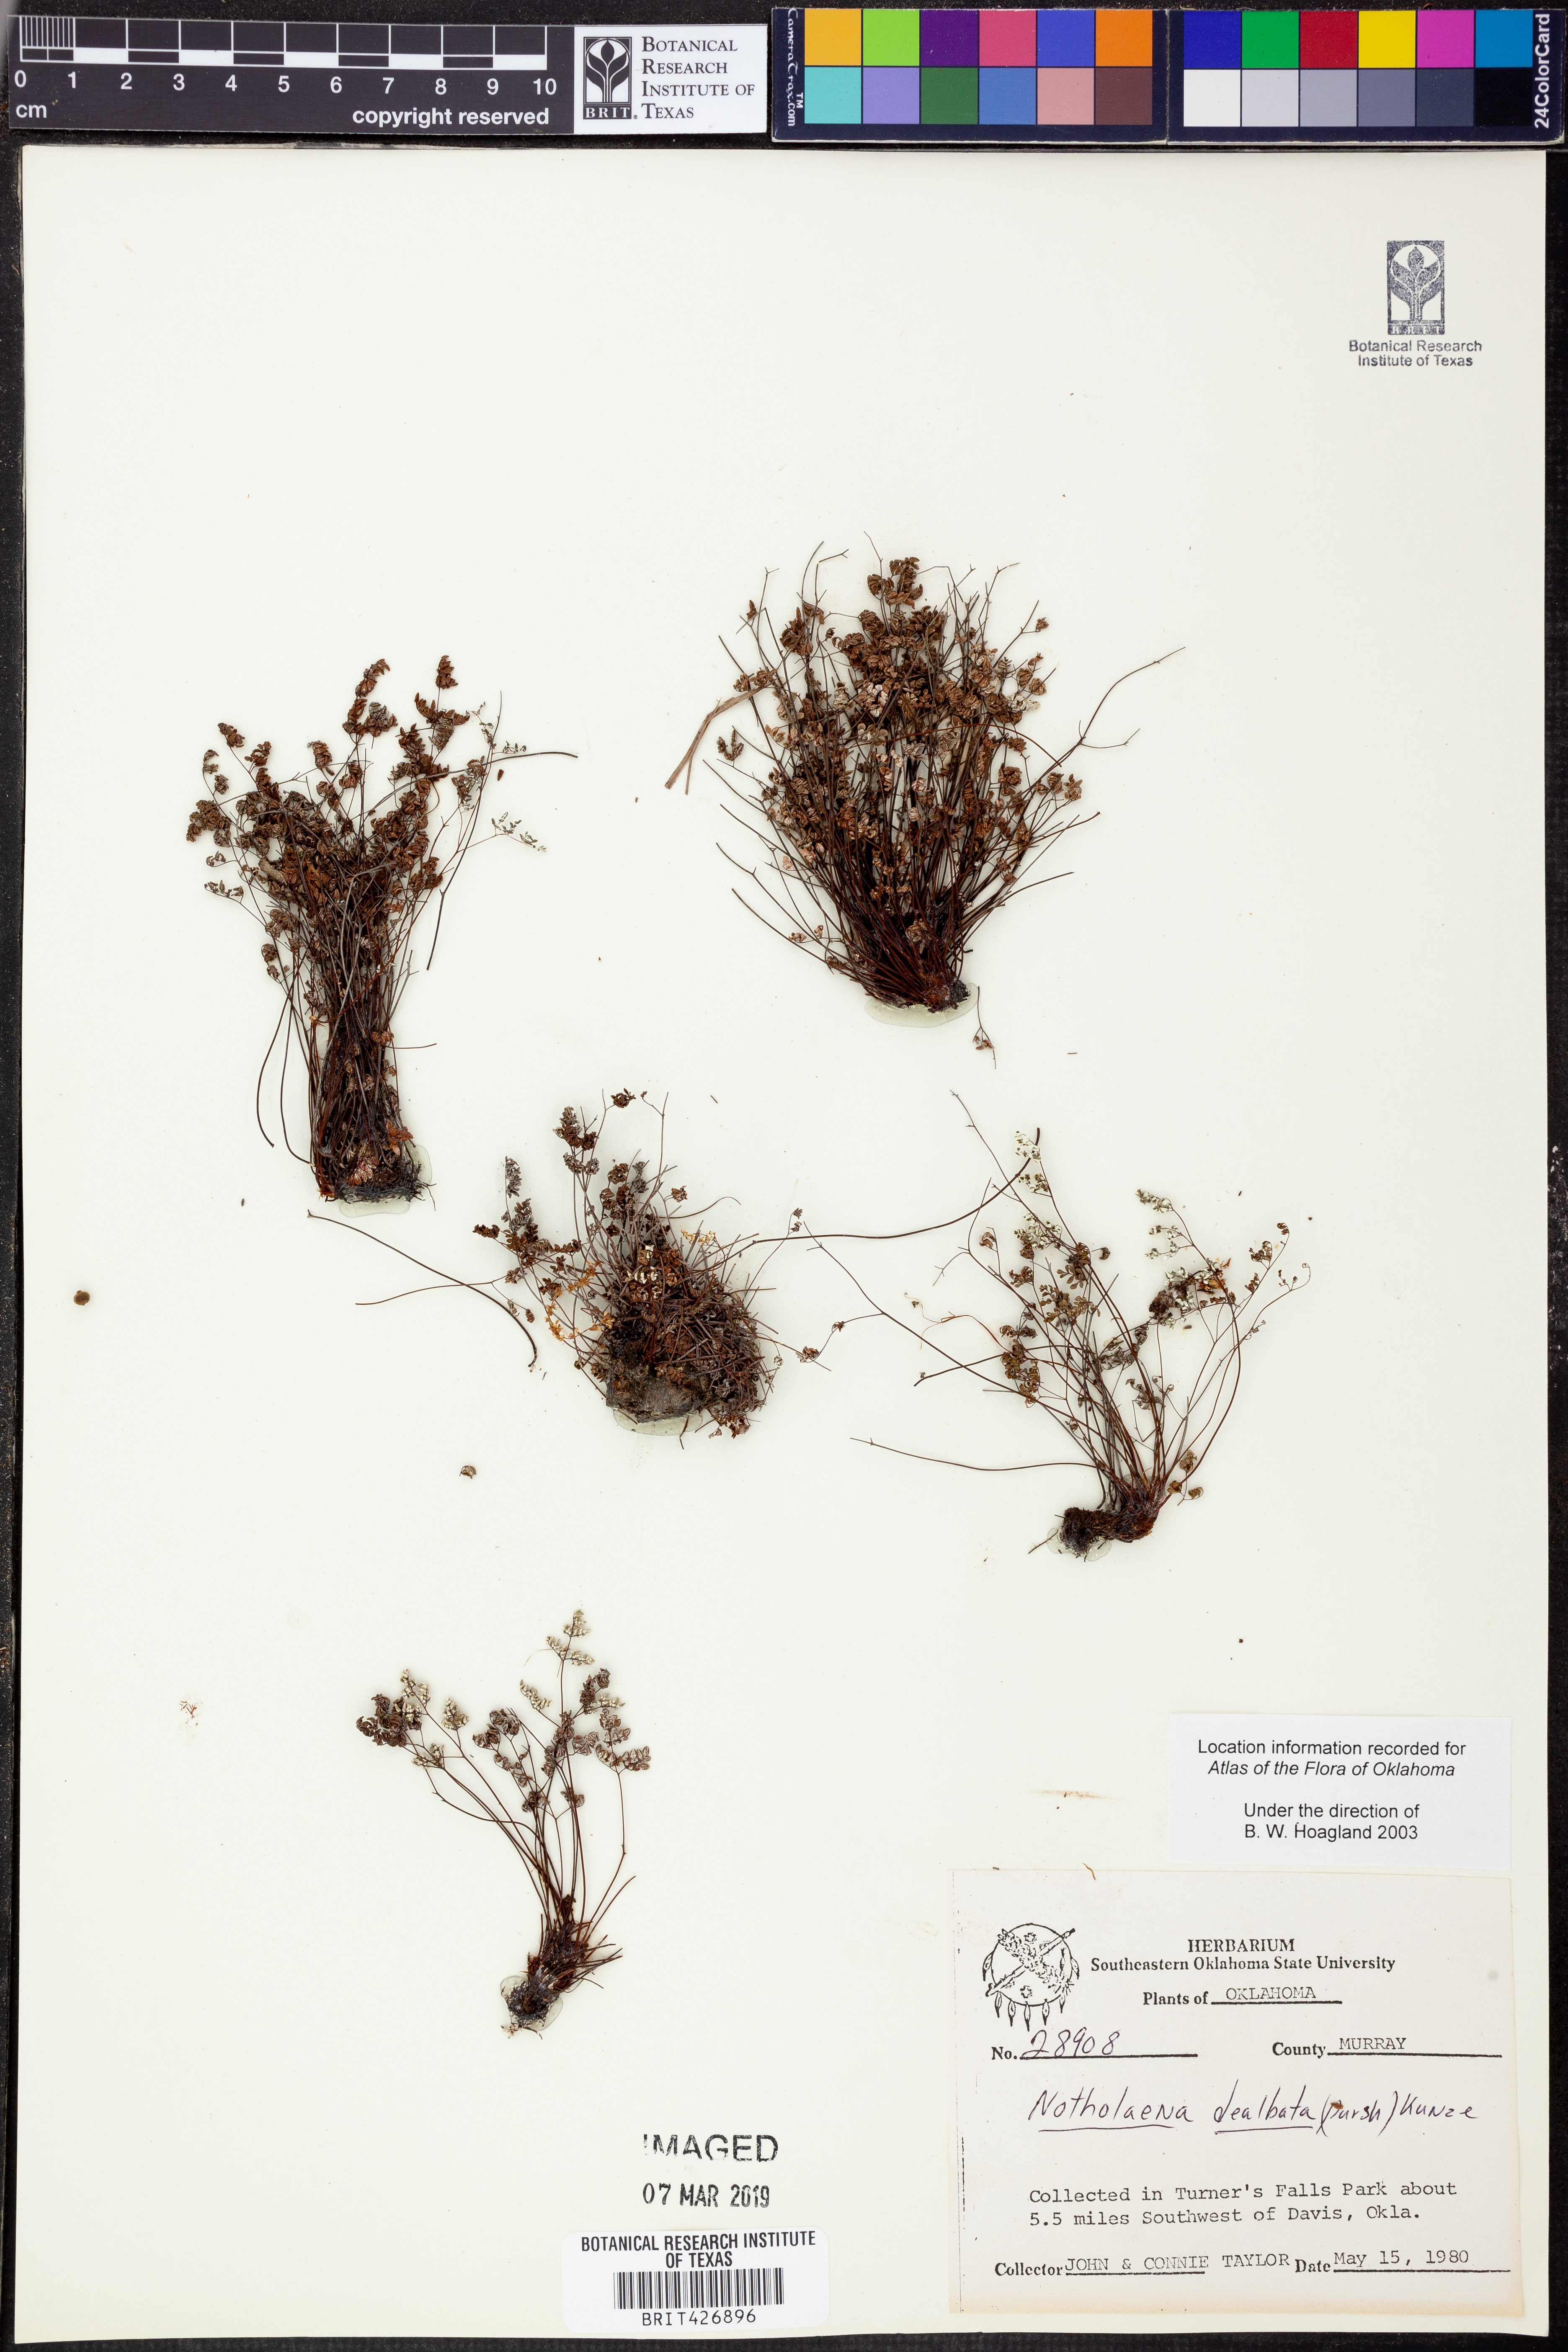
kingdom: Plantae
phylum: Tracheophyta
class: Polypodiopsida
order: Polypodiales
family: Pteridaceae
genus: Argyrochosma
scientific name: Argyrochosma dealbata
